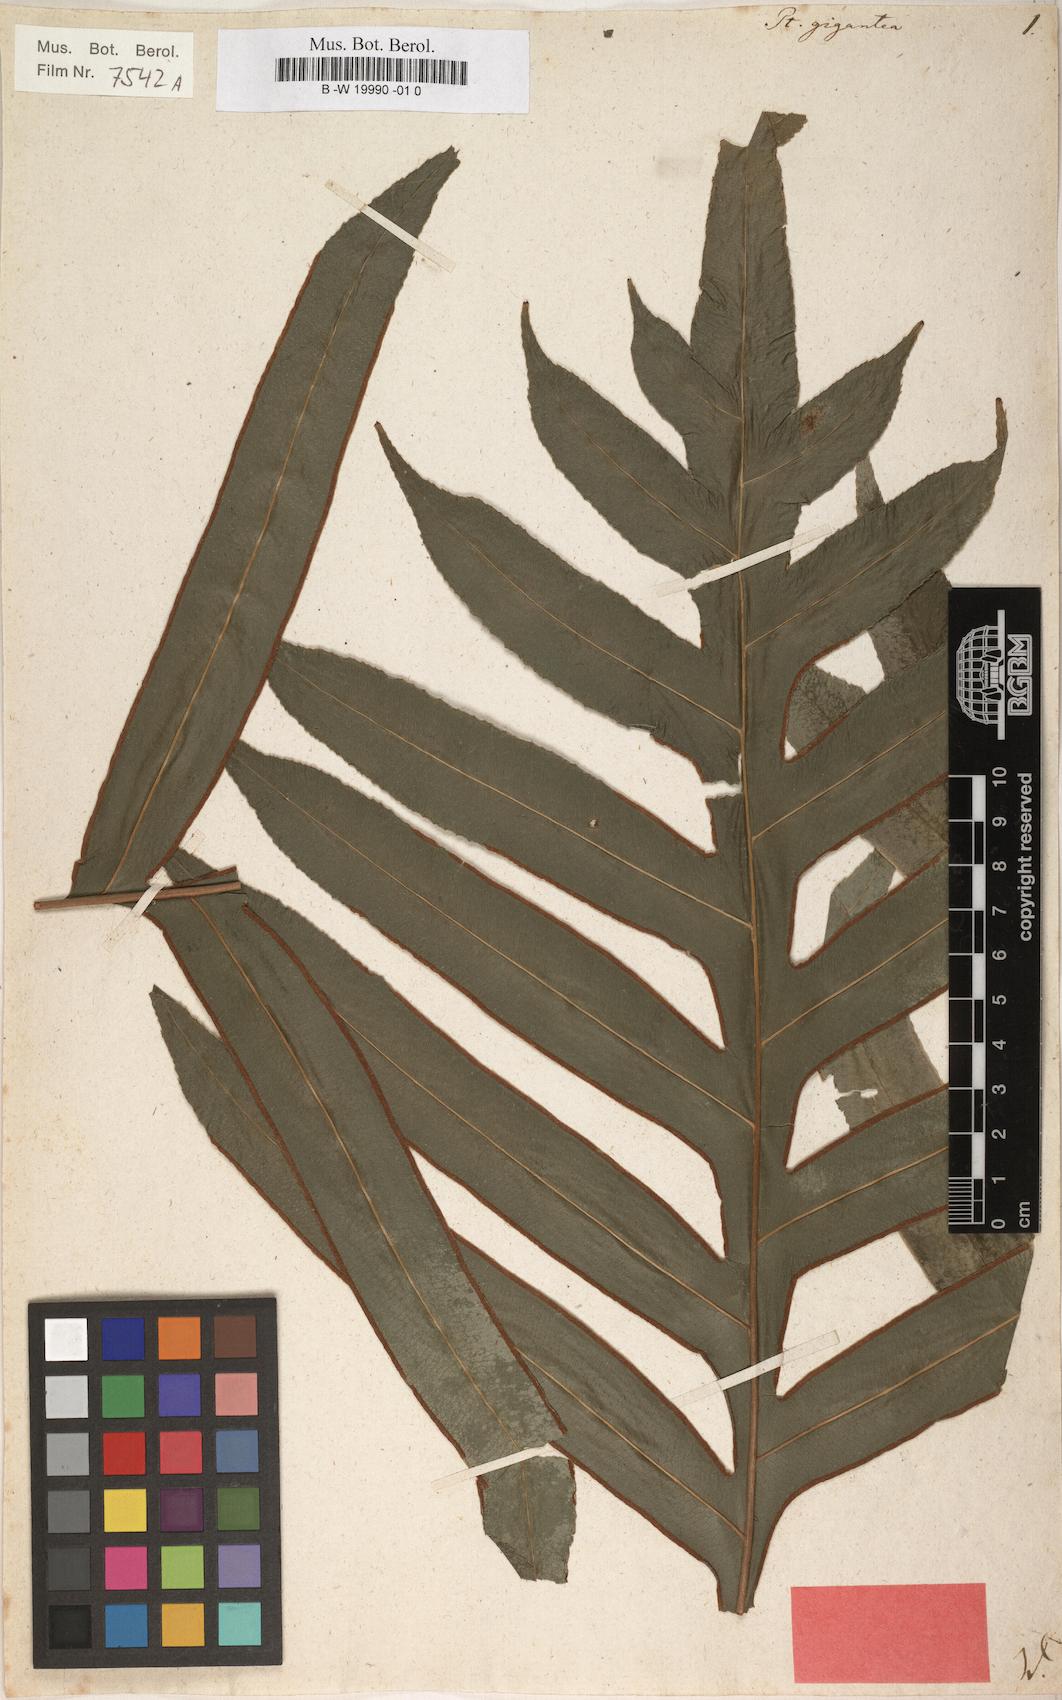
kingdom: Plantae
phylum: Tracheophyta
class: Polypodiopsida
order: Polypodiales
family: Pteridaceae
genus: Pteris
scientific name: Pteris gigantea
